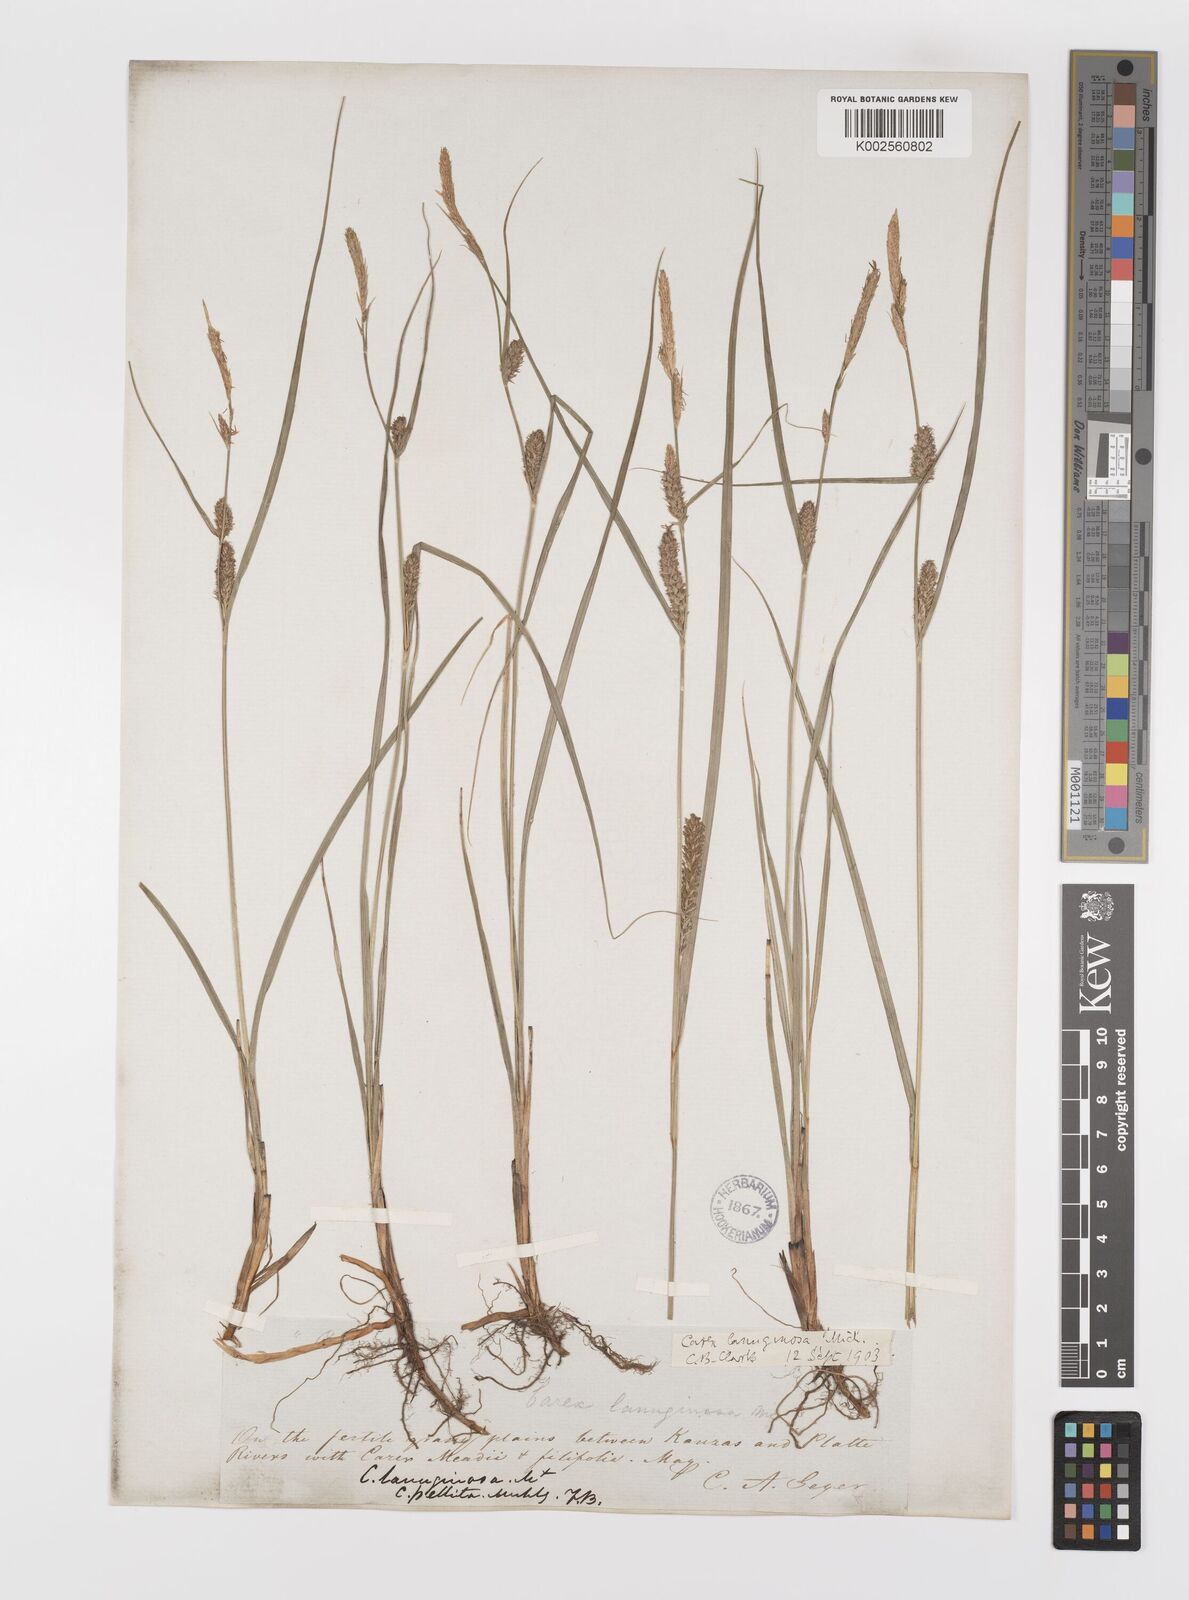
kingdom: Plantae
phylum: Tracheophyta
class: Liliopsida
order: Poales
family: Cyperaceae
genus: Carex
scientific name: Carex lasiocarpa
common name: Slender sedge
